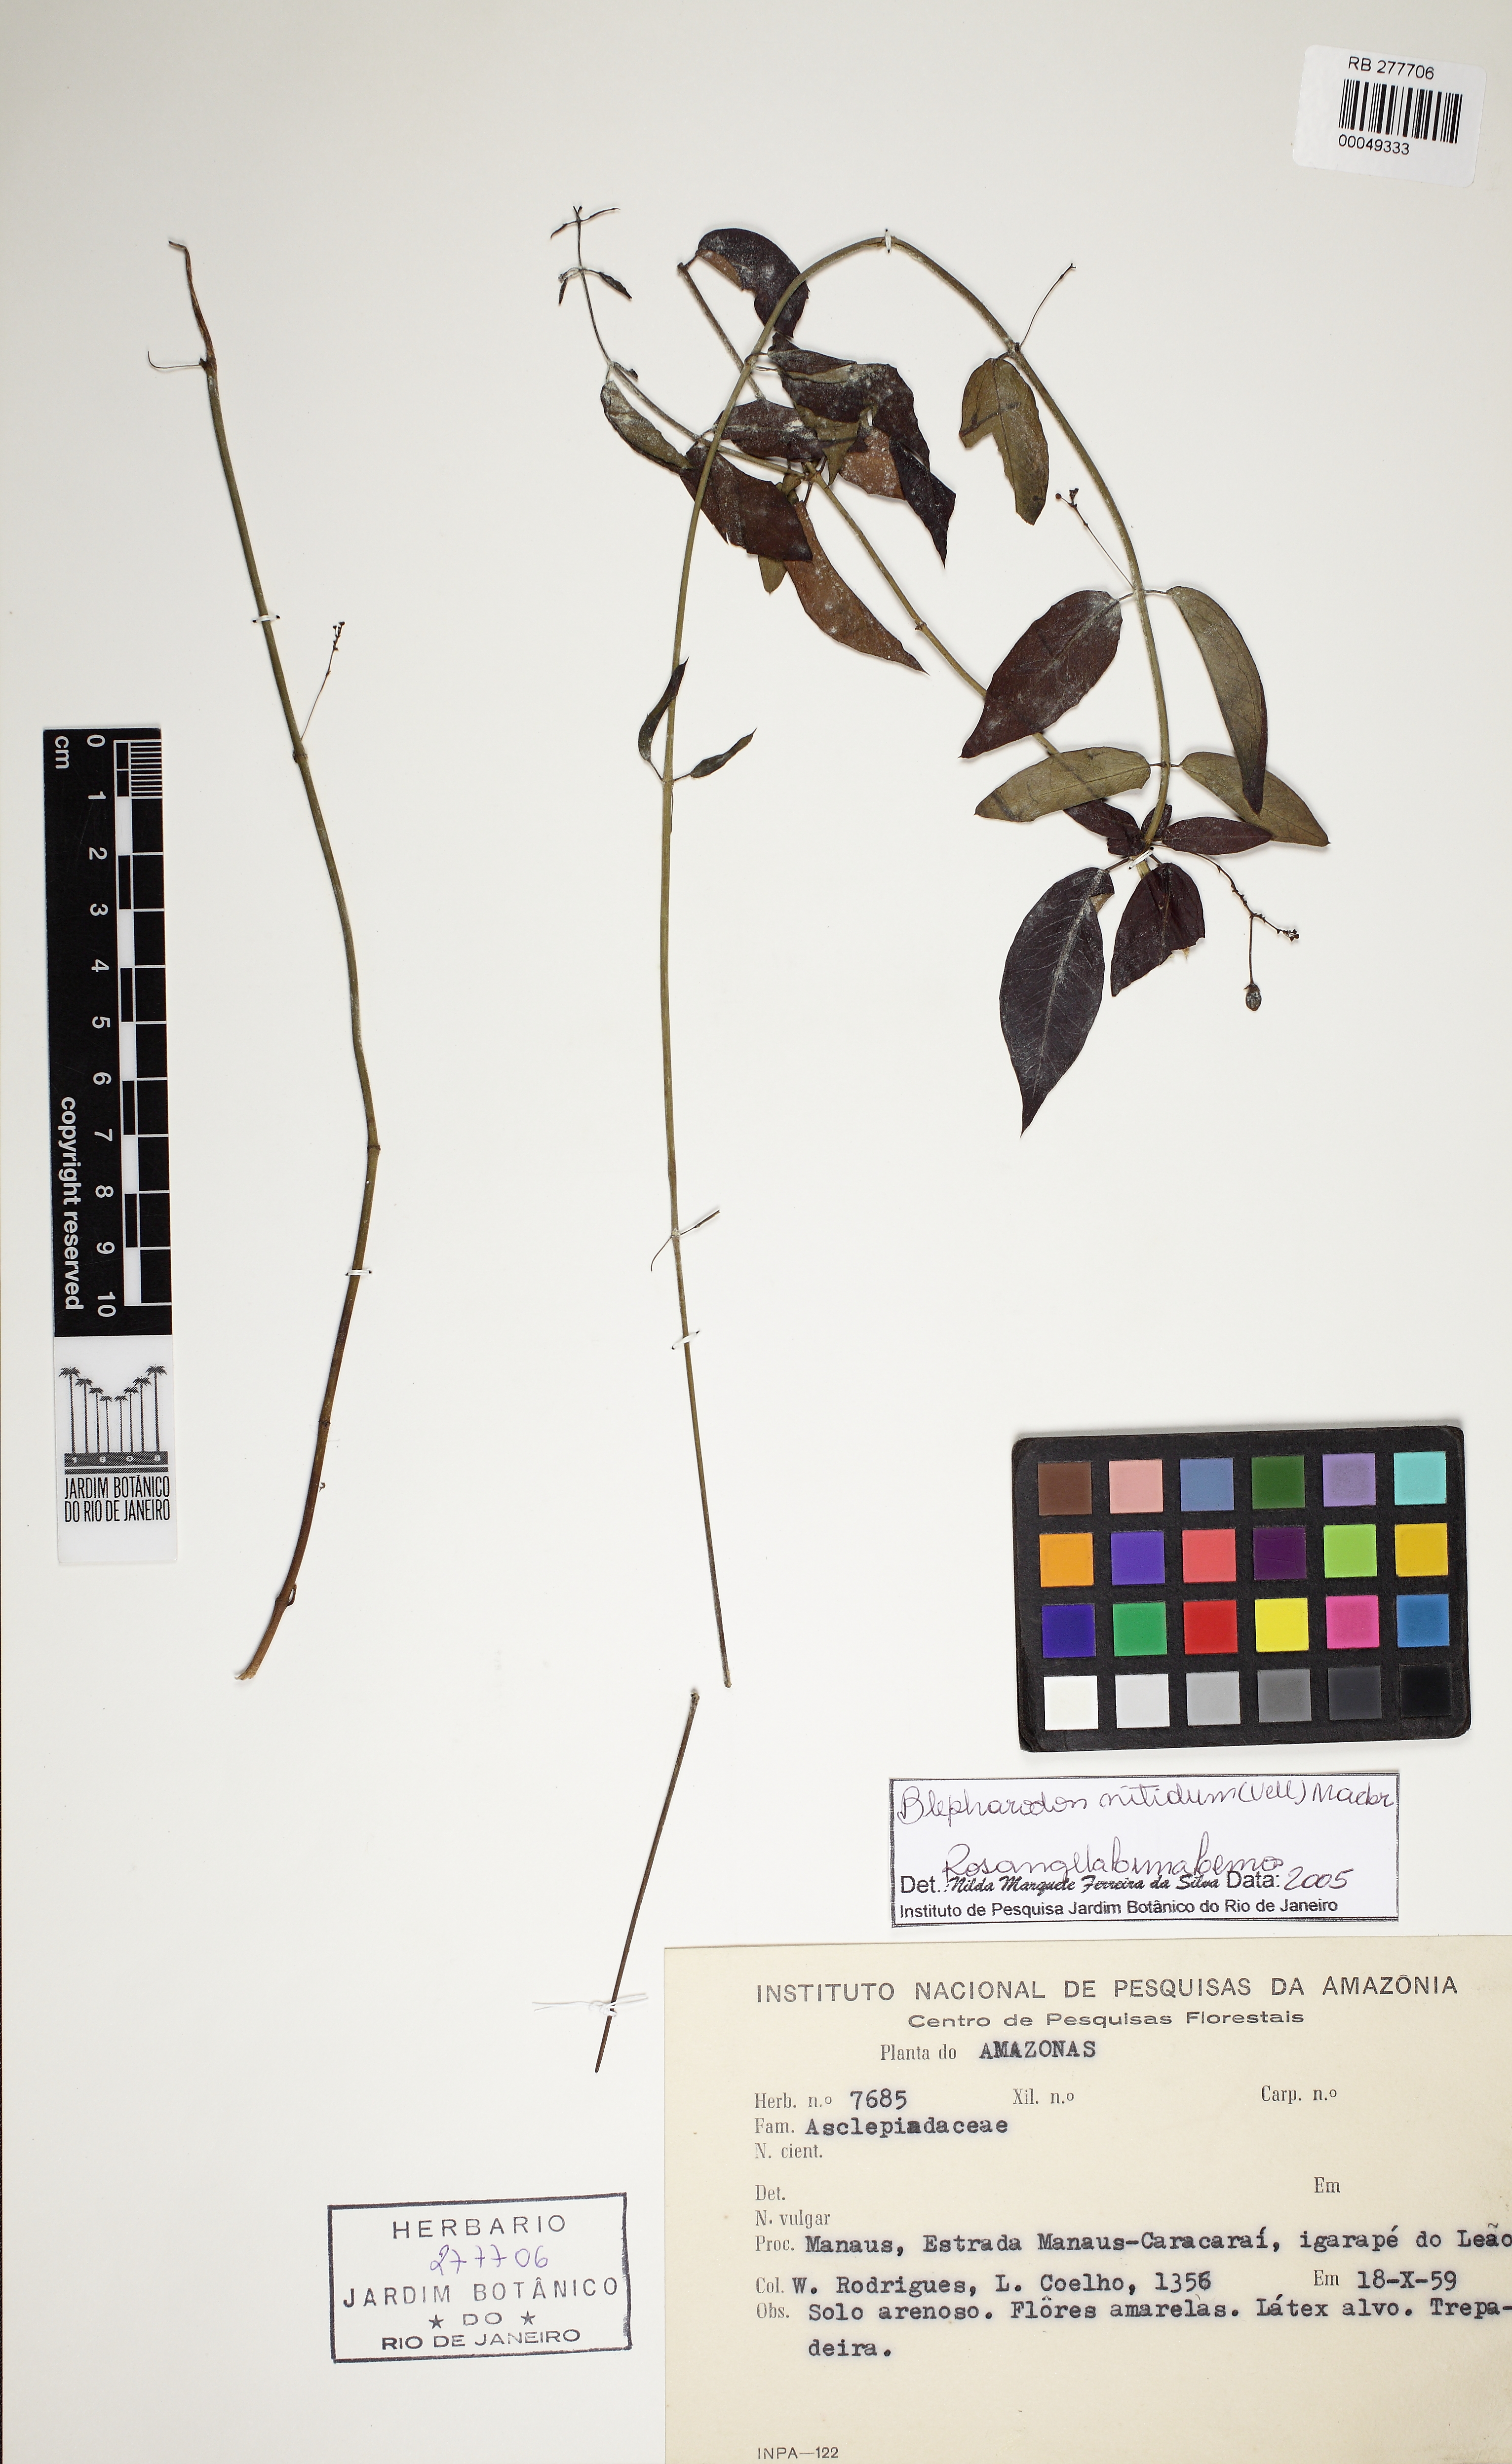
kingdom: Plantae
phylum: Tracheophyta
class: Magnoliopsida
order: Gentianales
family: Apocynaceae
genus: Blepharodon
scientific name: Blepharodon pictum
